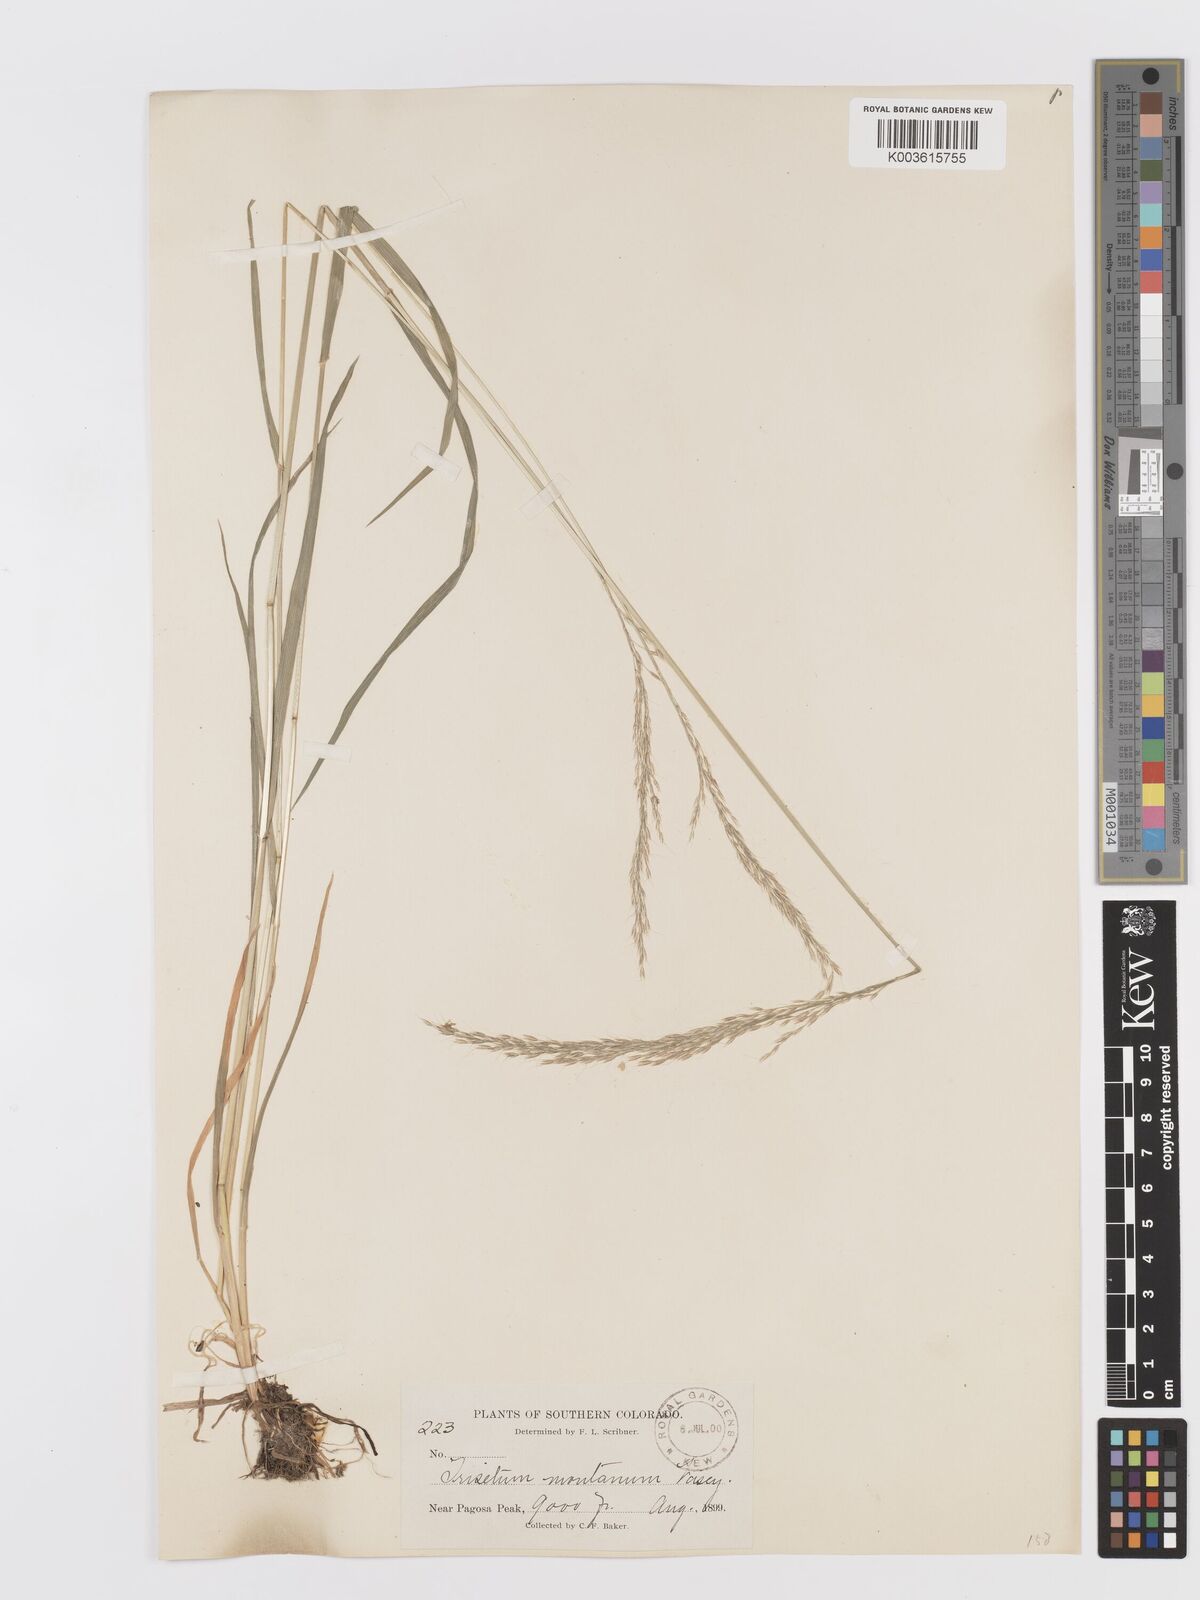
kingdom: Plantae
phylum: Tracheophyta
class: Liliopsida
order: Poales
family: Poaceae
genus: Koeleria
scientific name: Koeleria vaseyi
